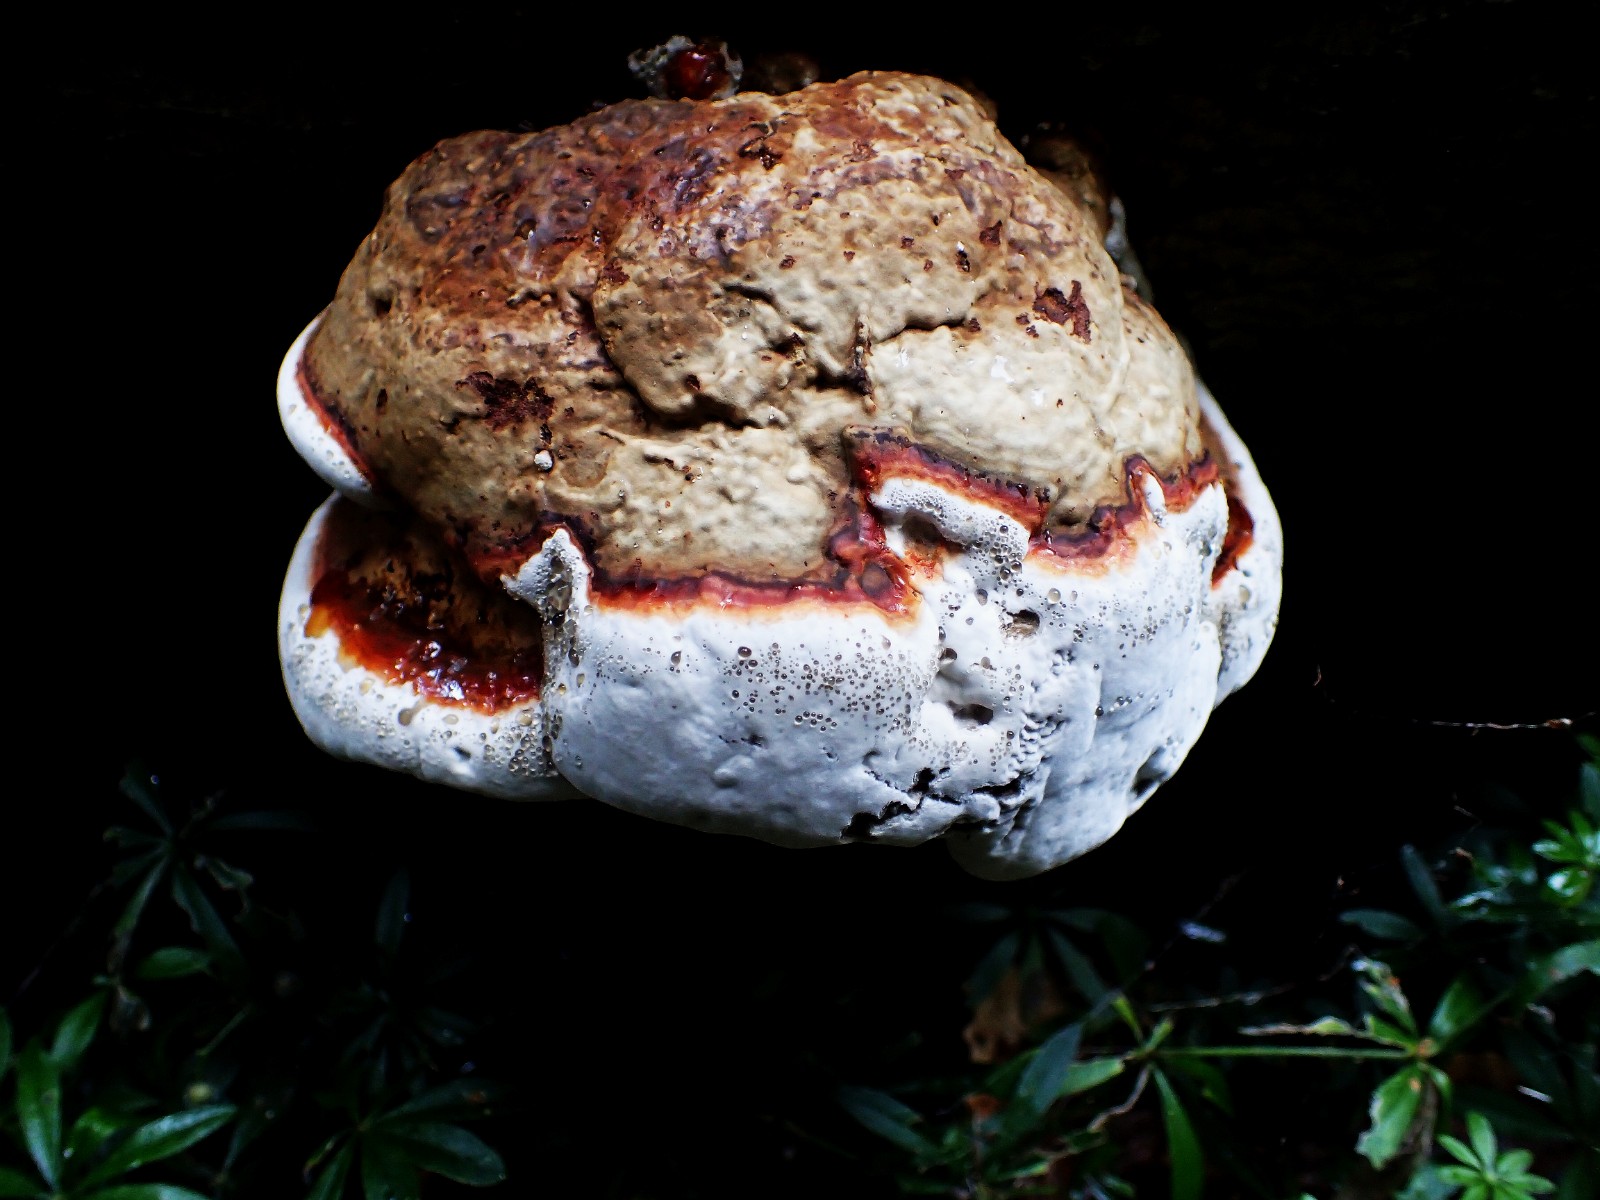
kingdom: Fungi
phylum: Basidiomycota
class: Agaricomycetes
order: Polyporales
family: Polyporaceae
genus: Ganoderma
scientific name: Ganoderma pfeifferi
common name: kobberrød lakporesvamp
